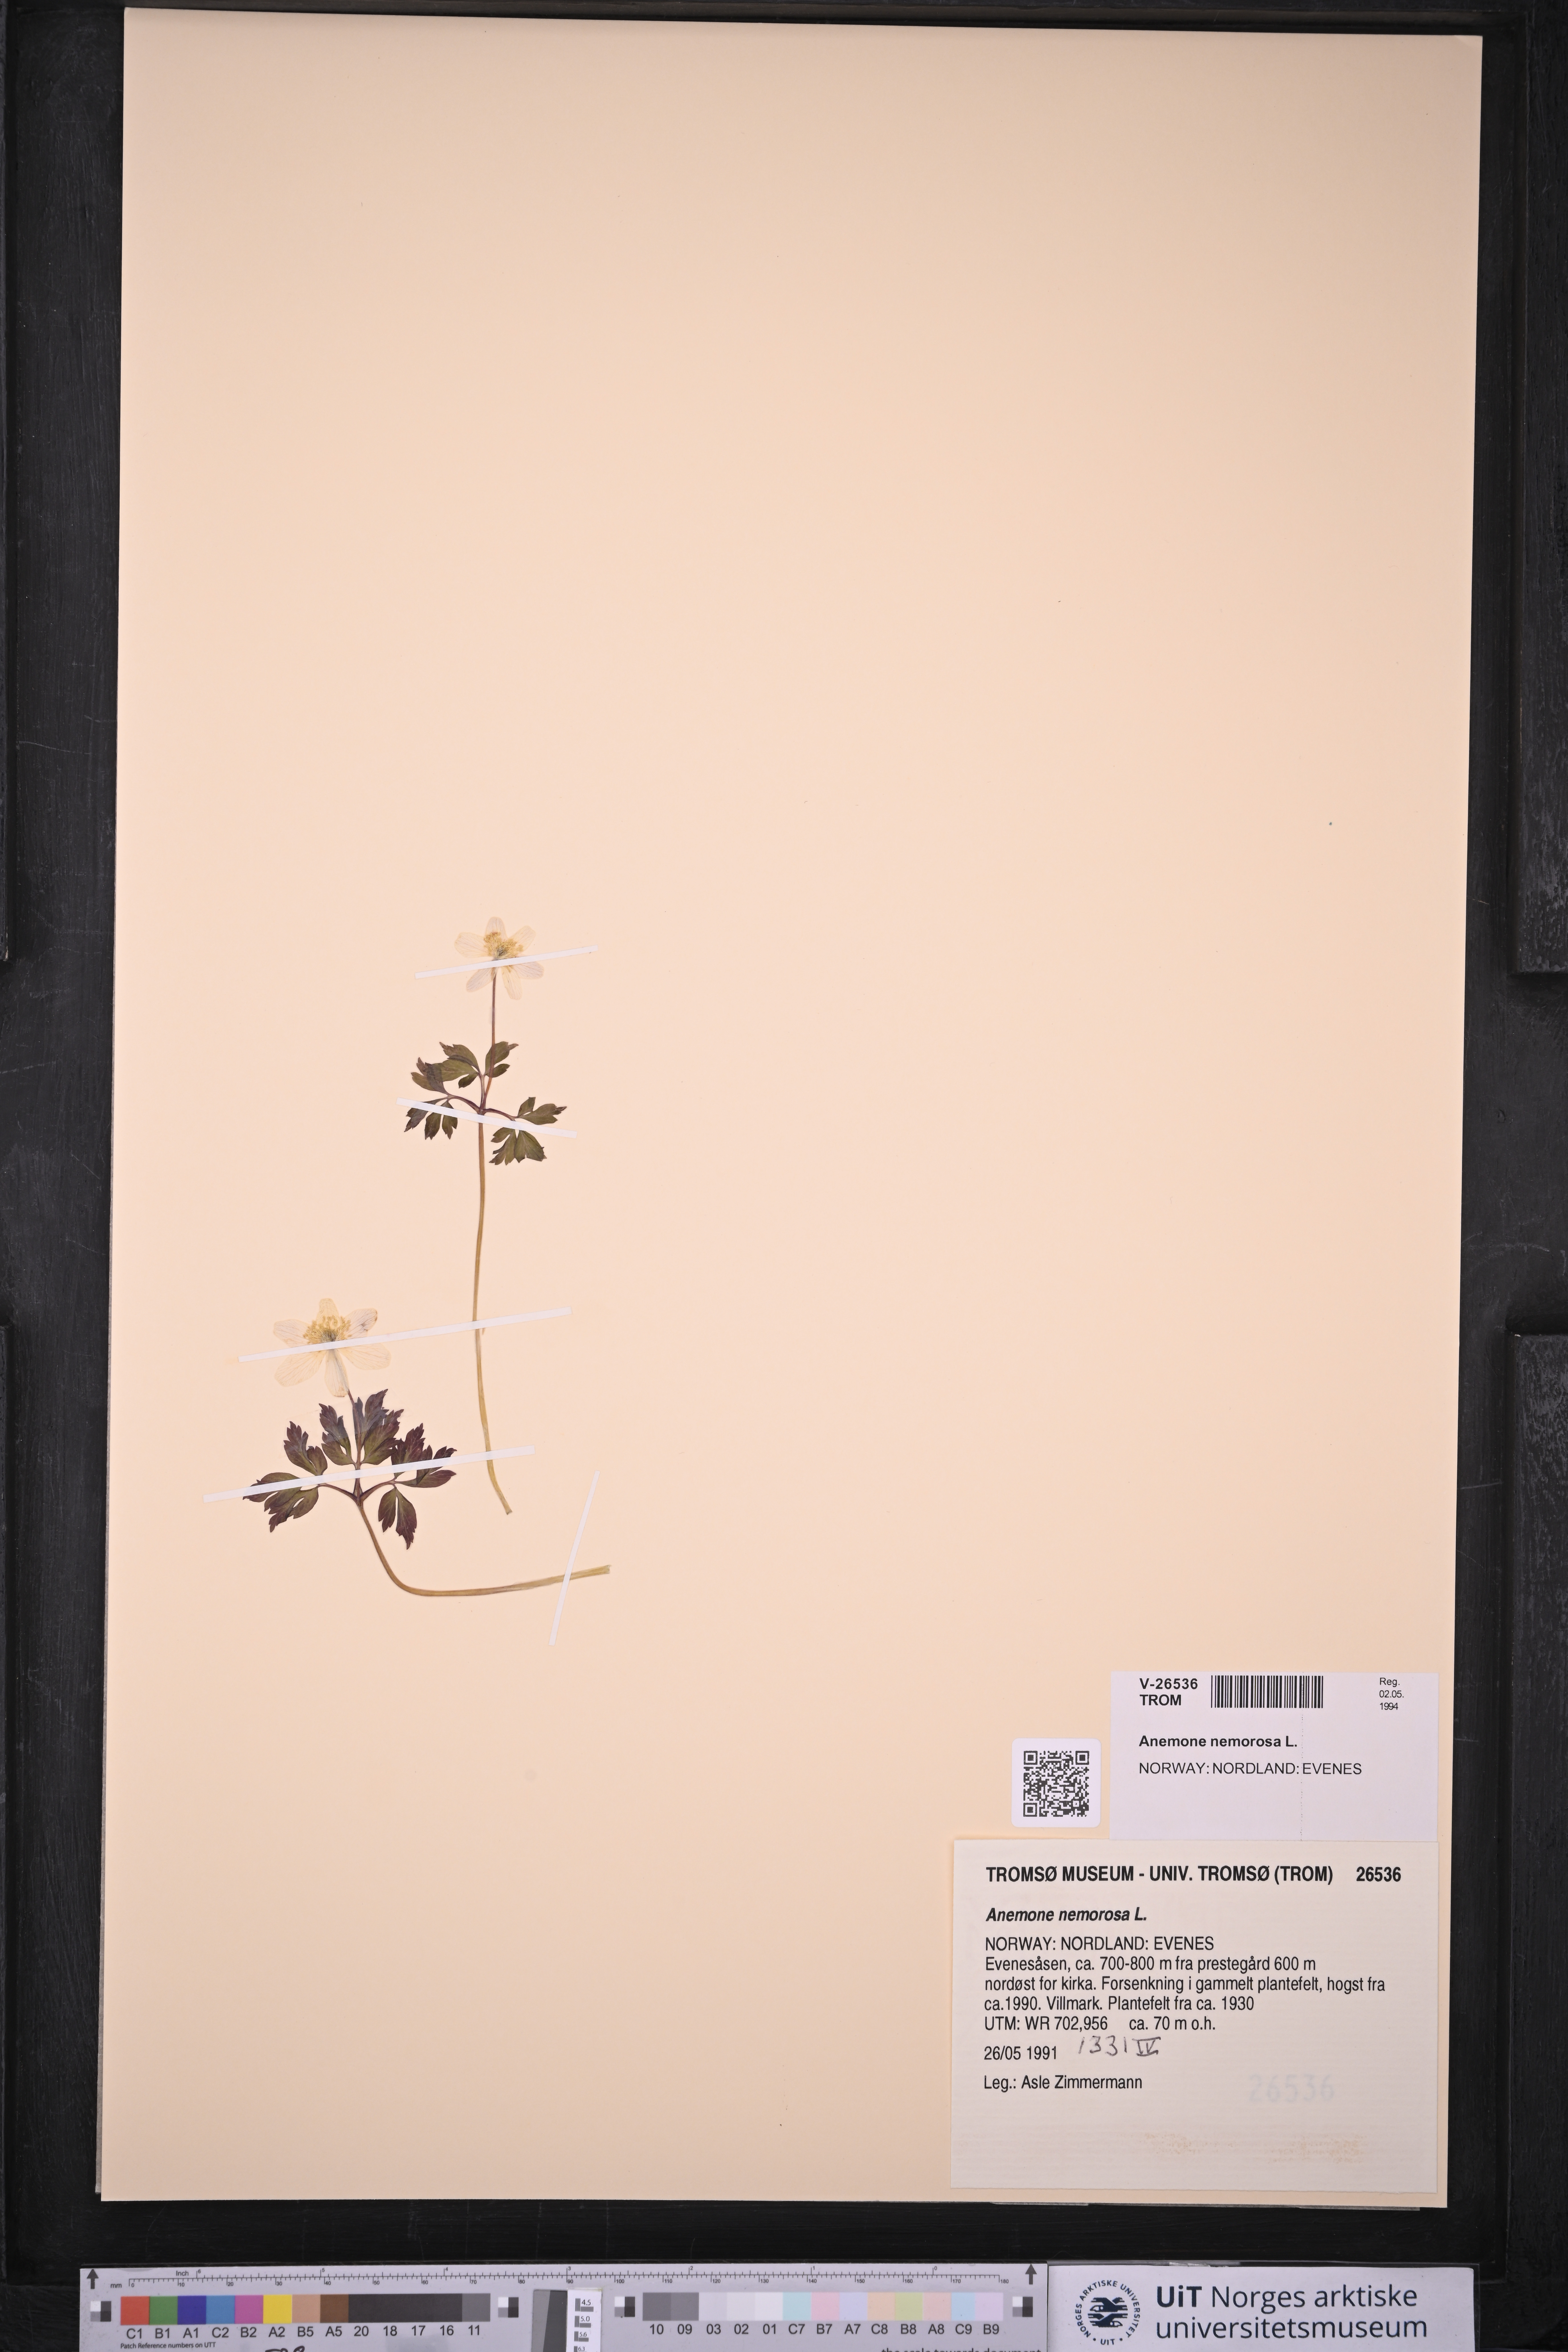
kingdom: Plantae
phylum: Tracheophyta
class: Magnoliopsida
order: Ranunculales
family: Ranunculaceae
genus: Anemone
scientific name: Anemone nemorosa
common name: Wood anemone
